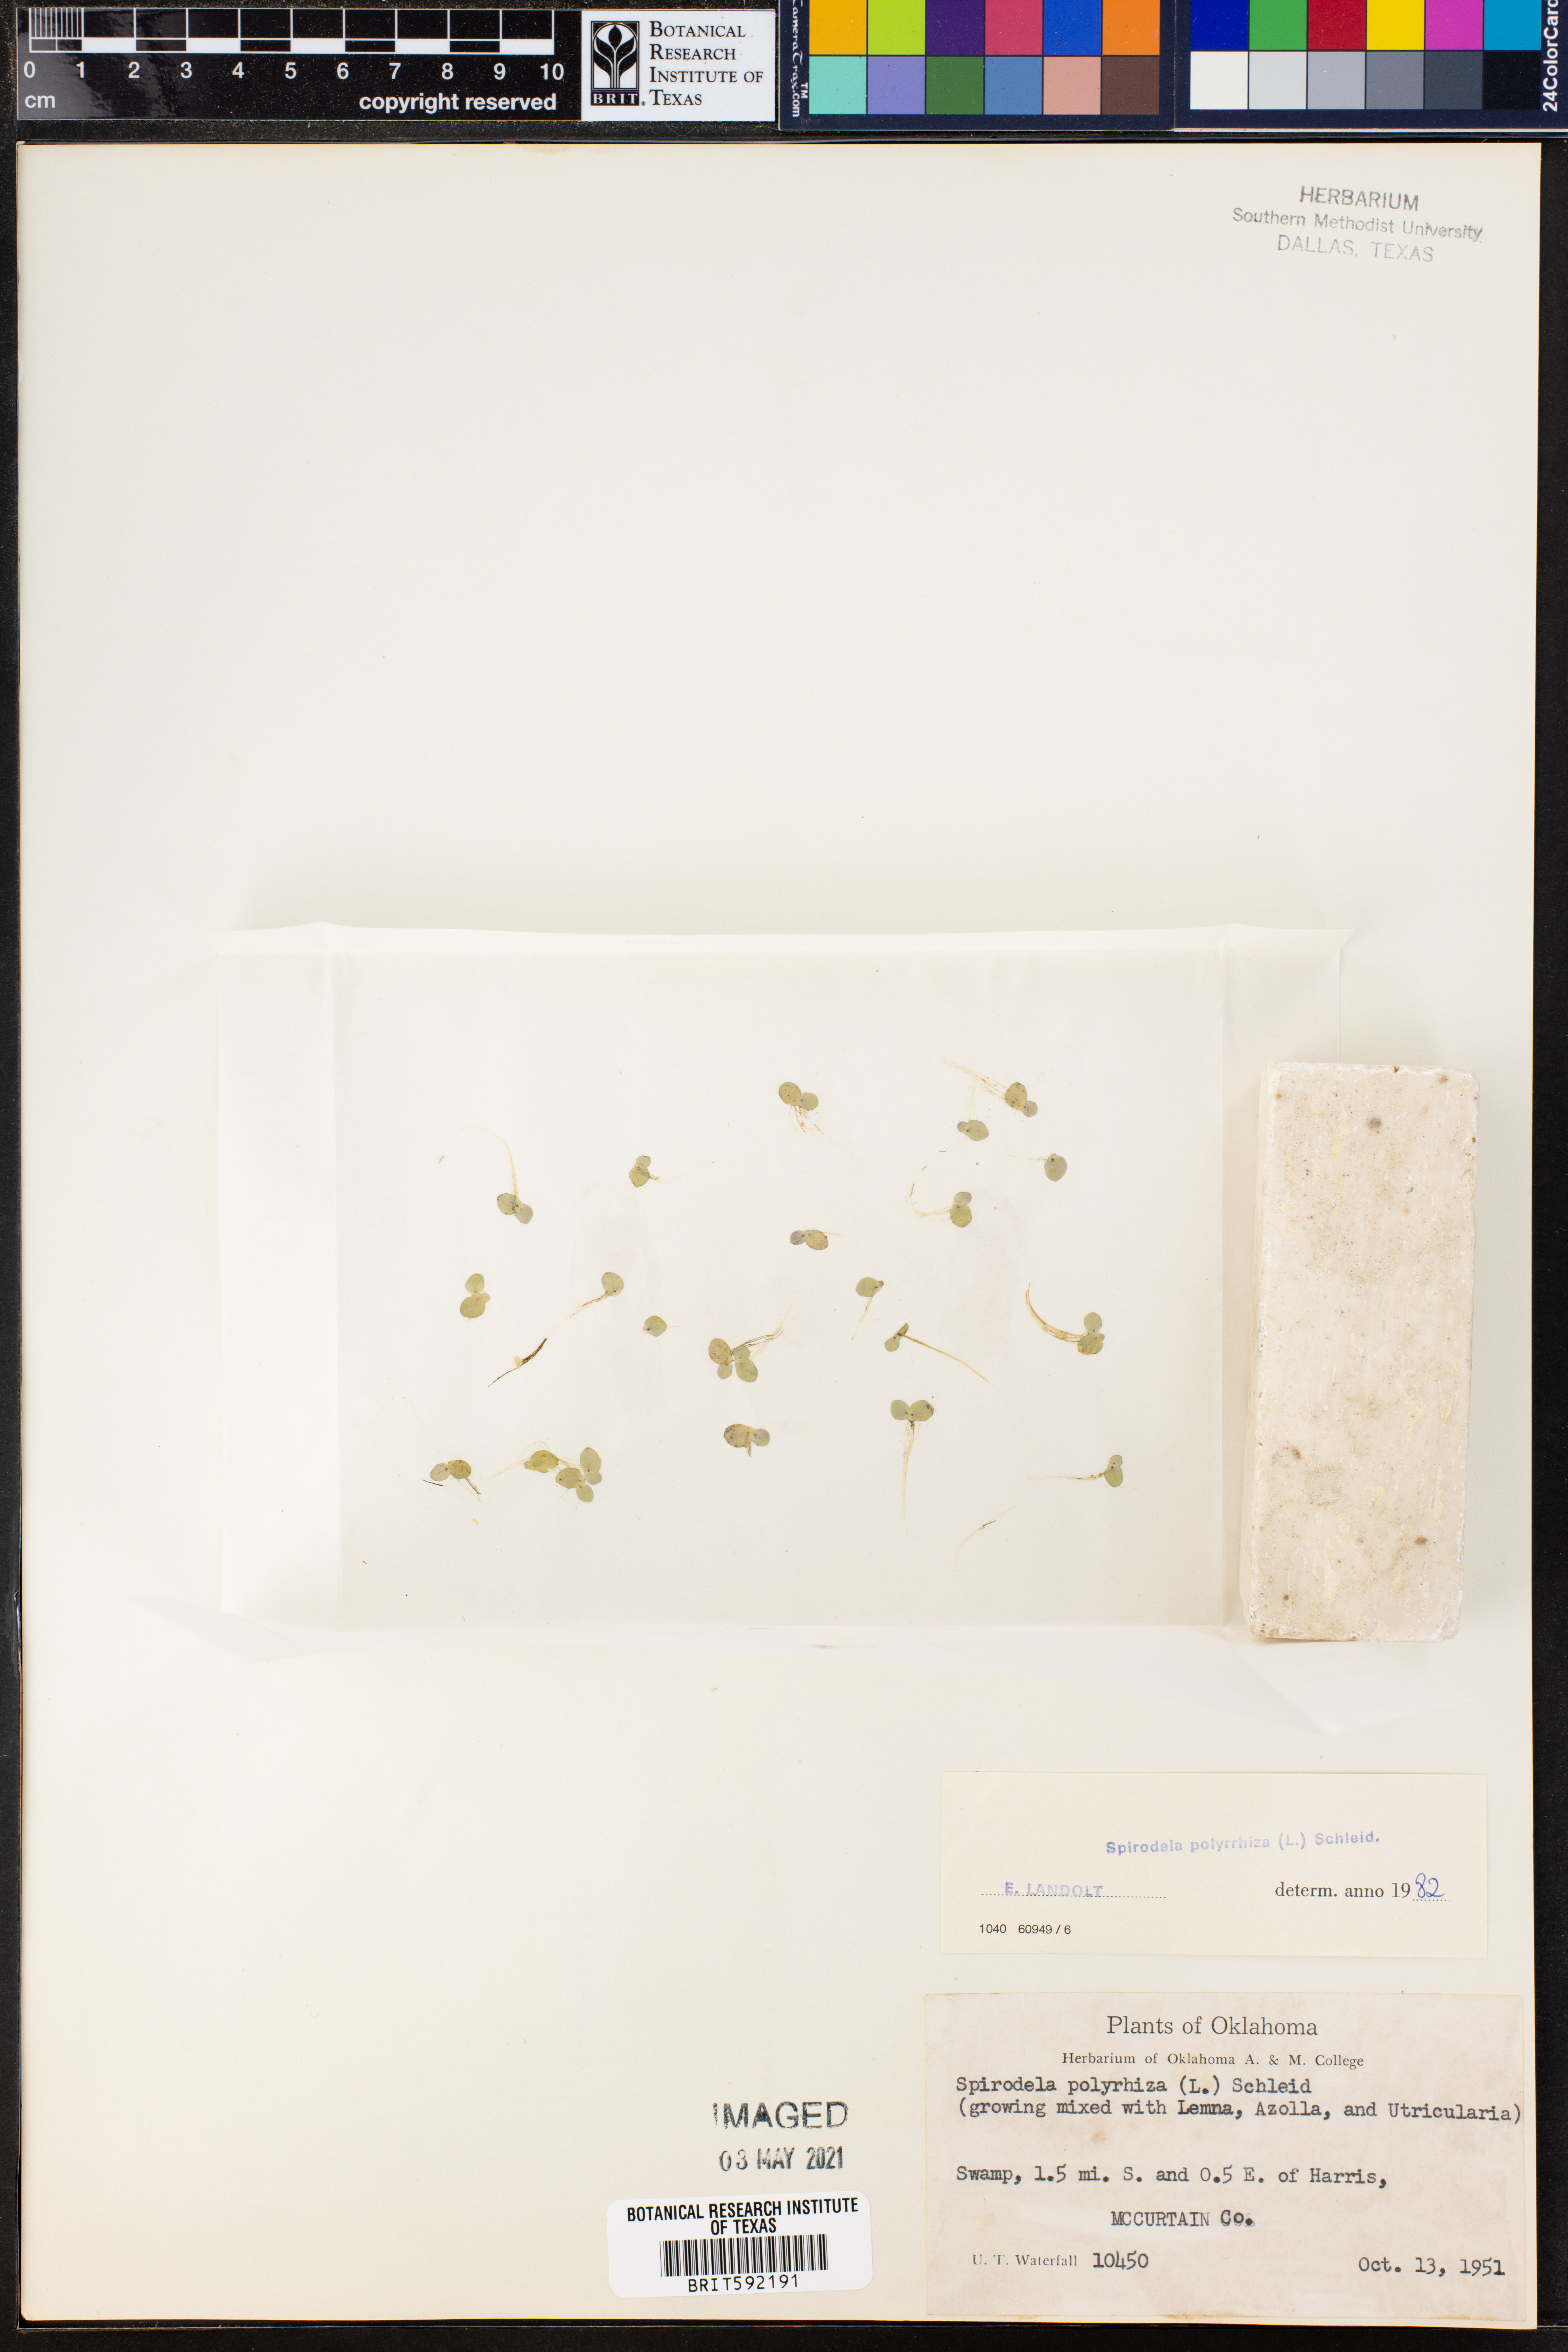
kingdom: Plantae
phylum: Tracheophyta
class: Liliopsida
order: Alismatales
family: Araceae
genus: Spirodela
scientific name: Spirodela polyrhiza
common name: Great duckweed
